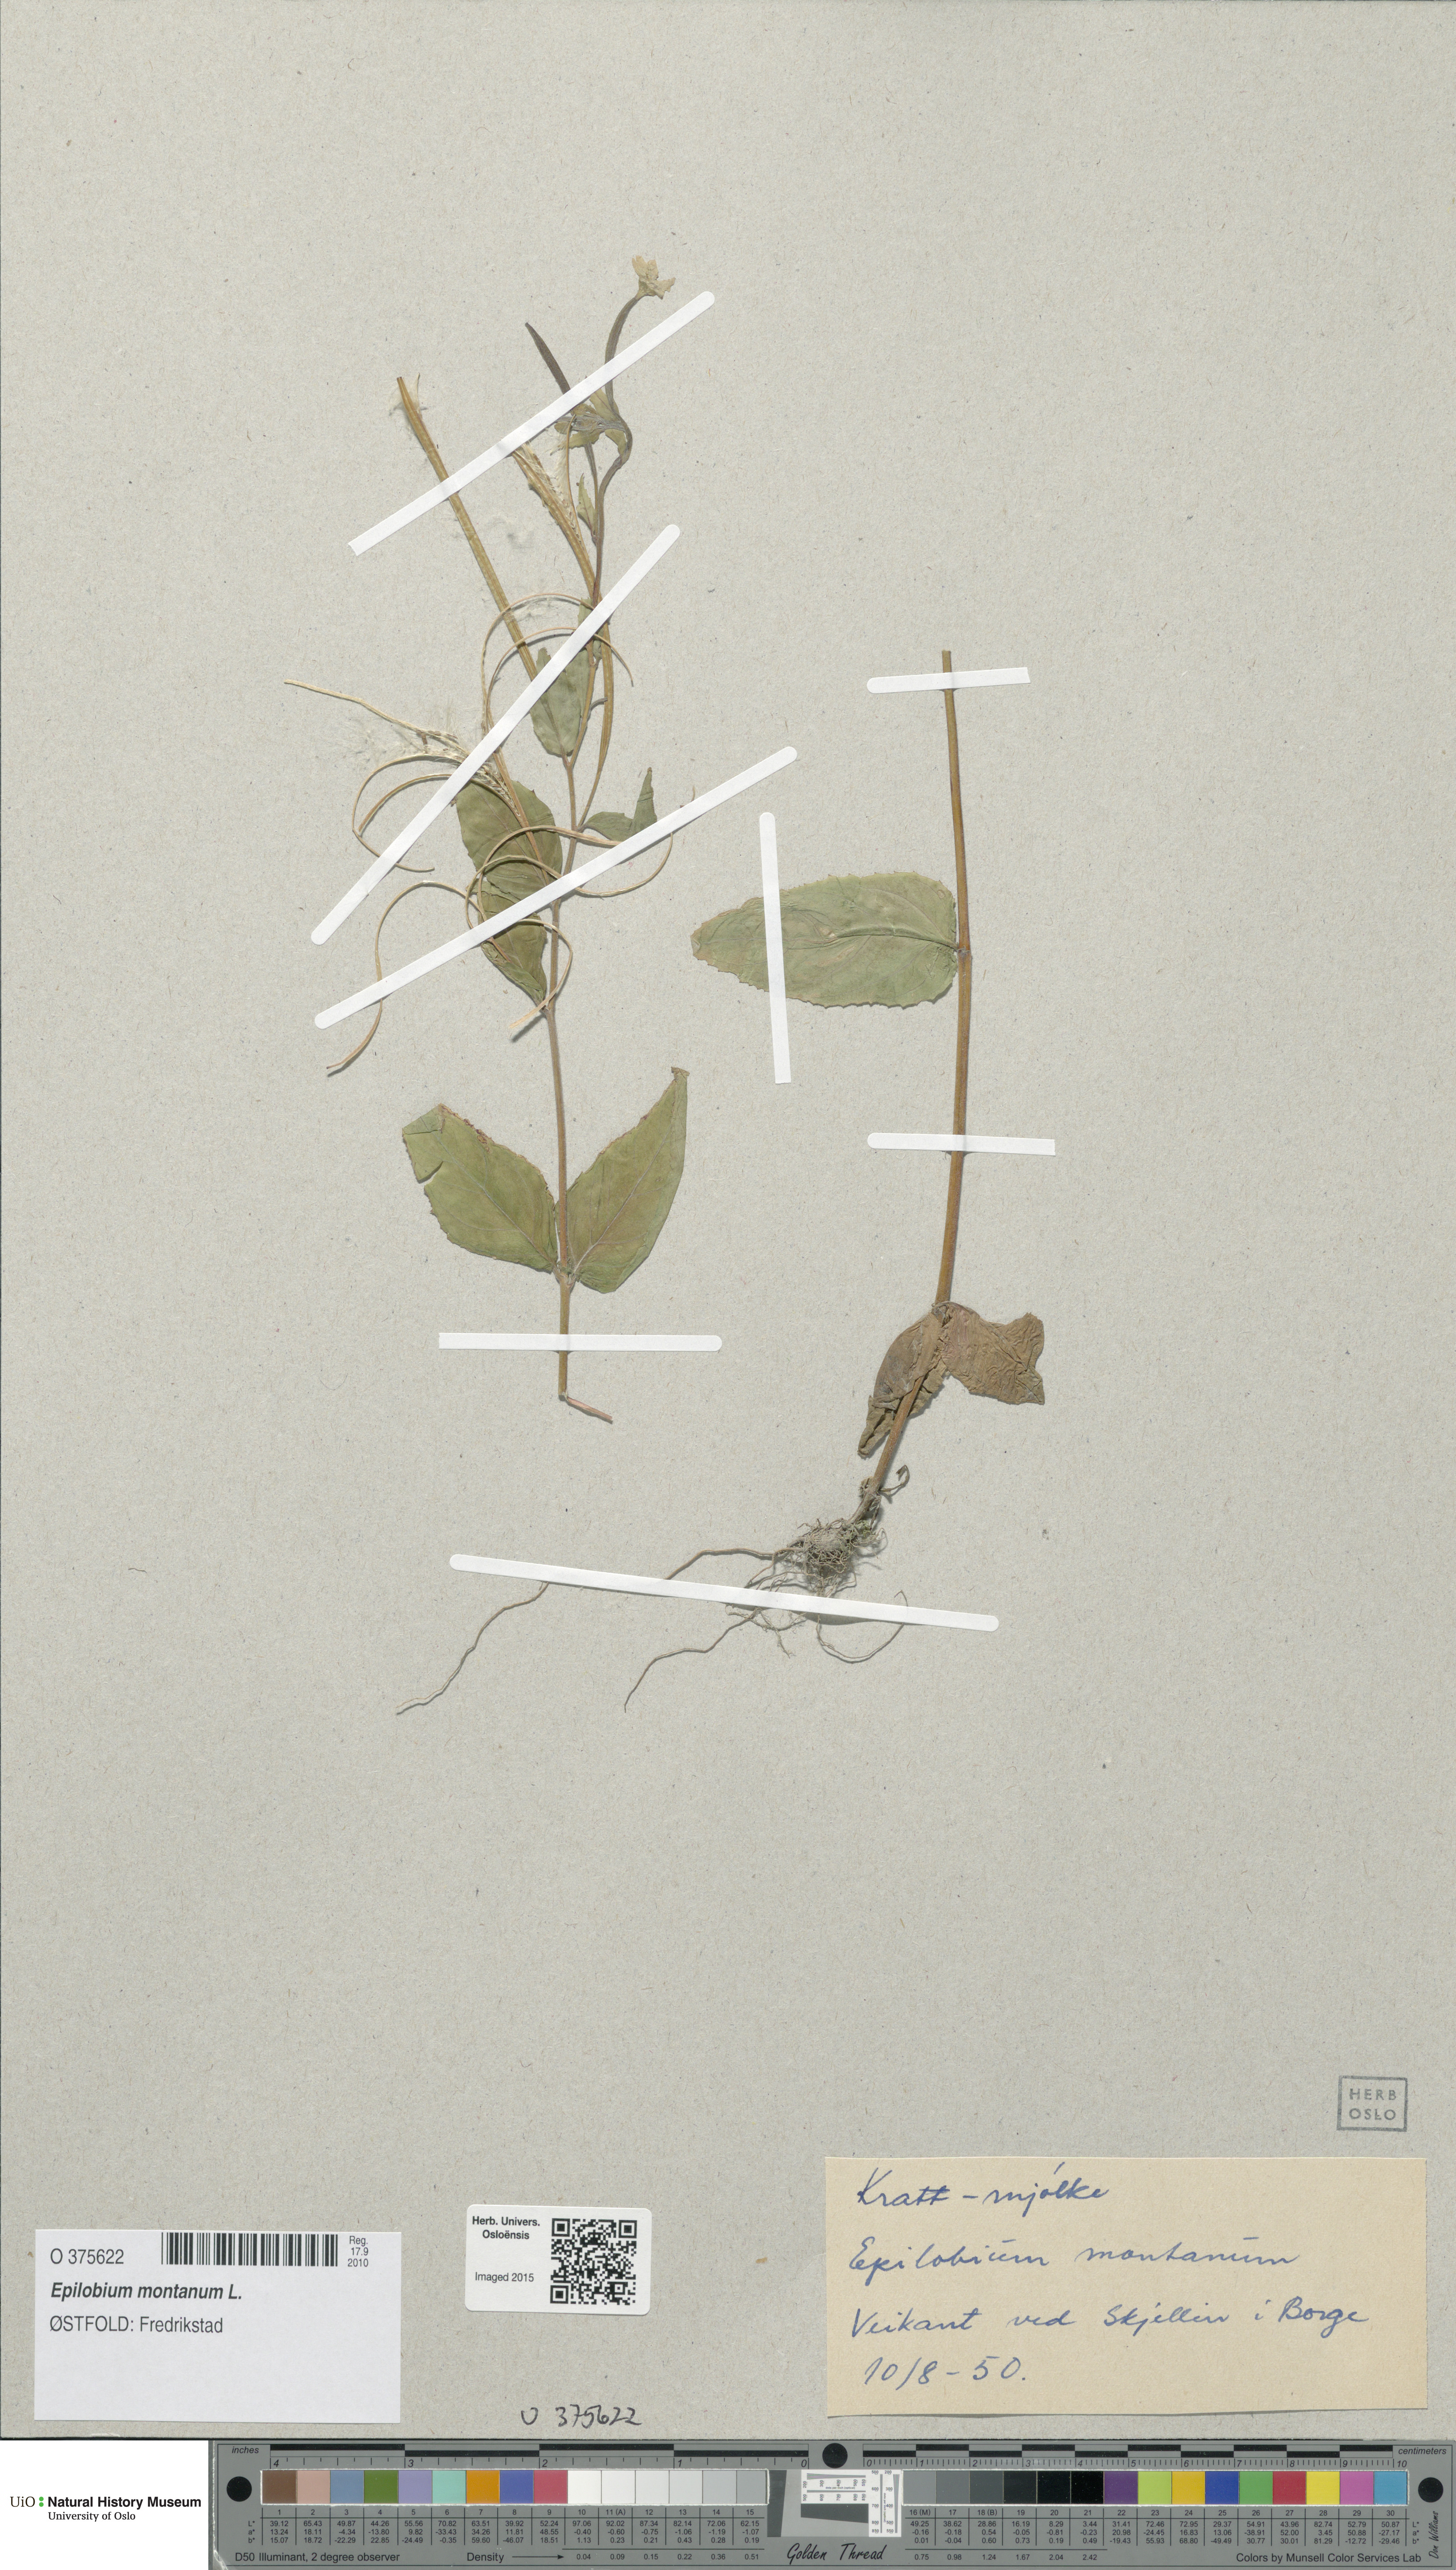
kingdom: Plantae
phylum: Tracheophyta
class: Magnoliopsida
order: Myrtales
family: Onagraceae
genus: Epilobium
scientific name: Epilobium montanum
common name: Broad-leaved willowherb
